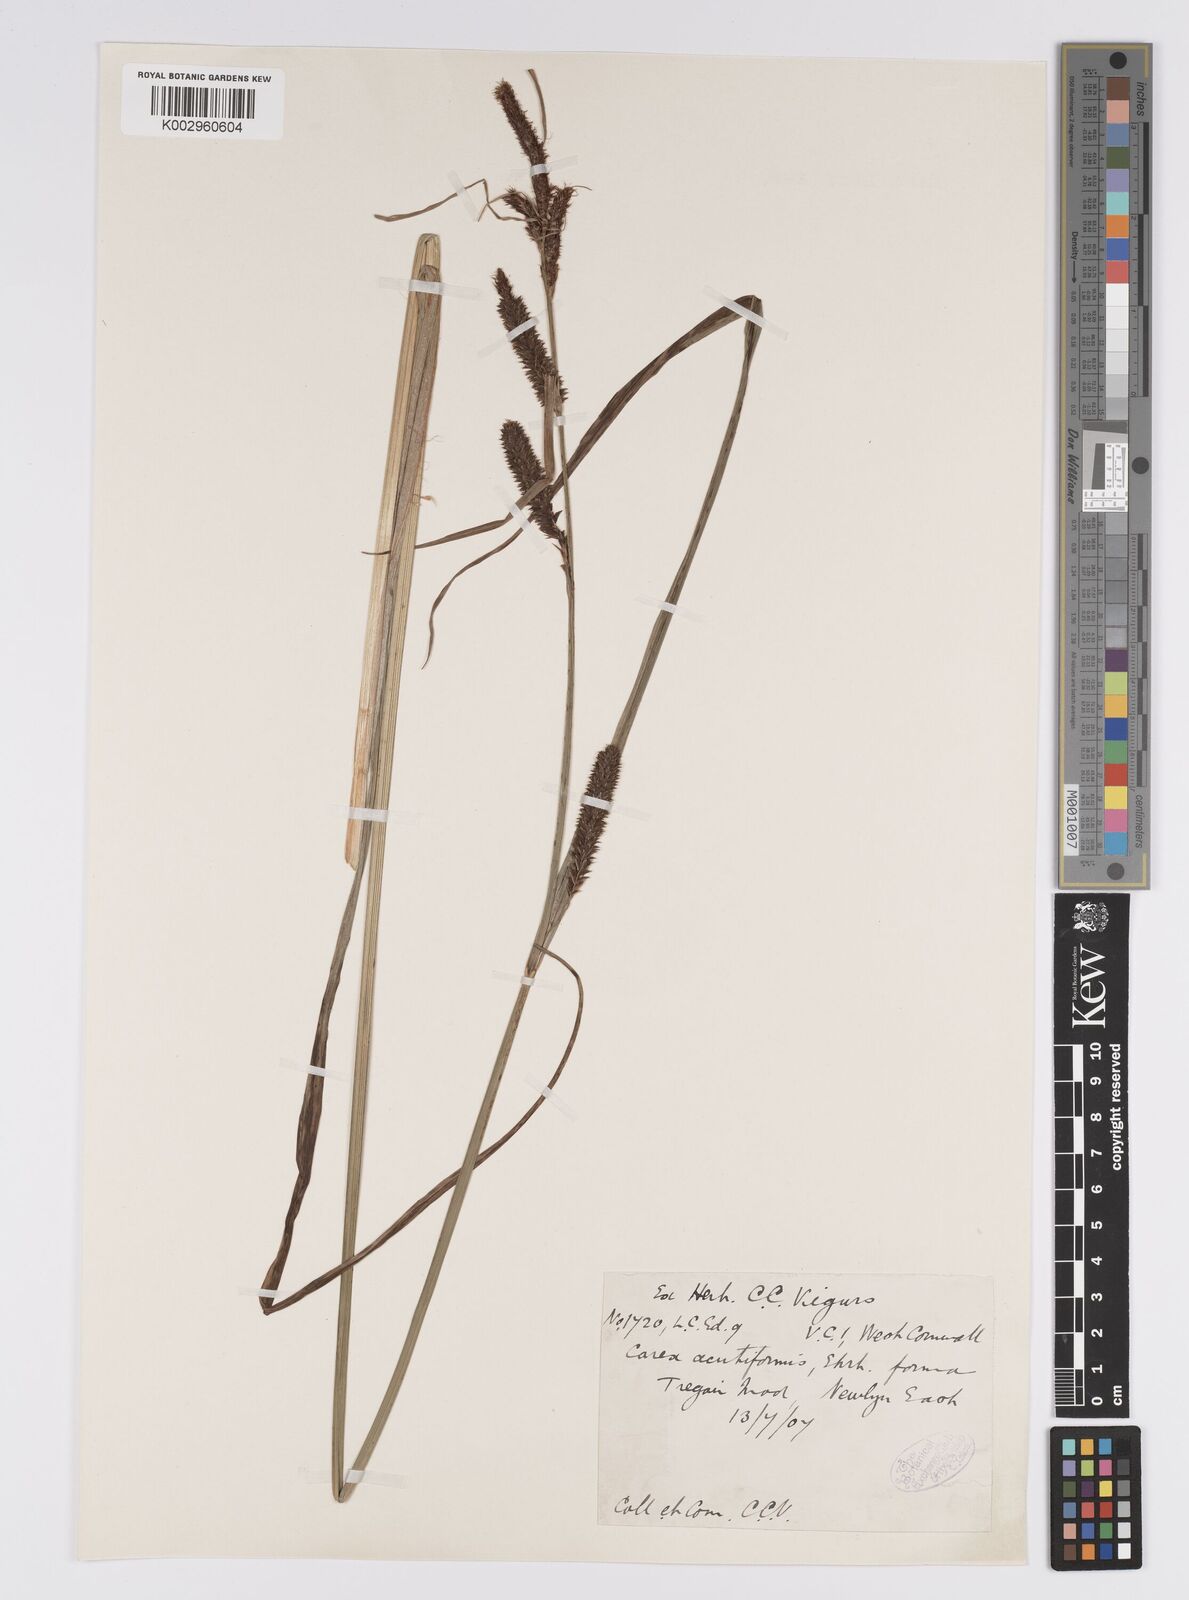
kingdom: Plantae
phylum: Tracheophyta
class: Liliopsida
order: Poales
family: Cyperaceae
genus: Carex
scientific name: Carex acutiformis
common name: Lesser pond-sedge
